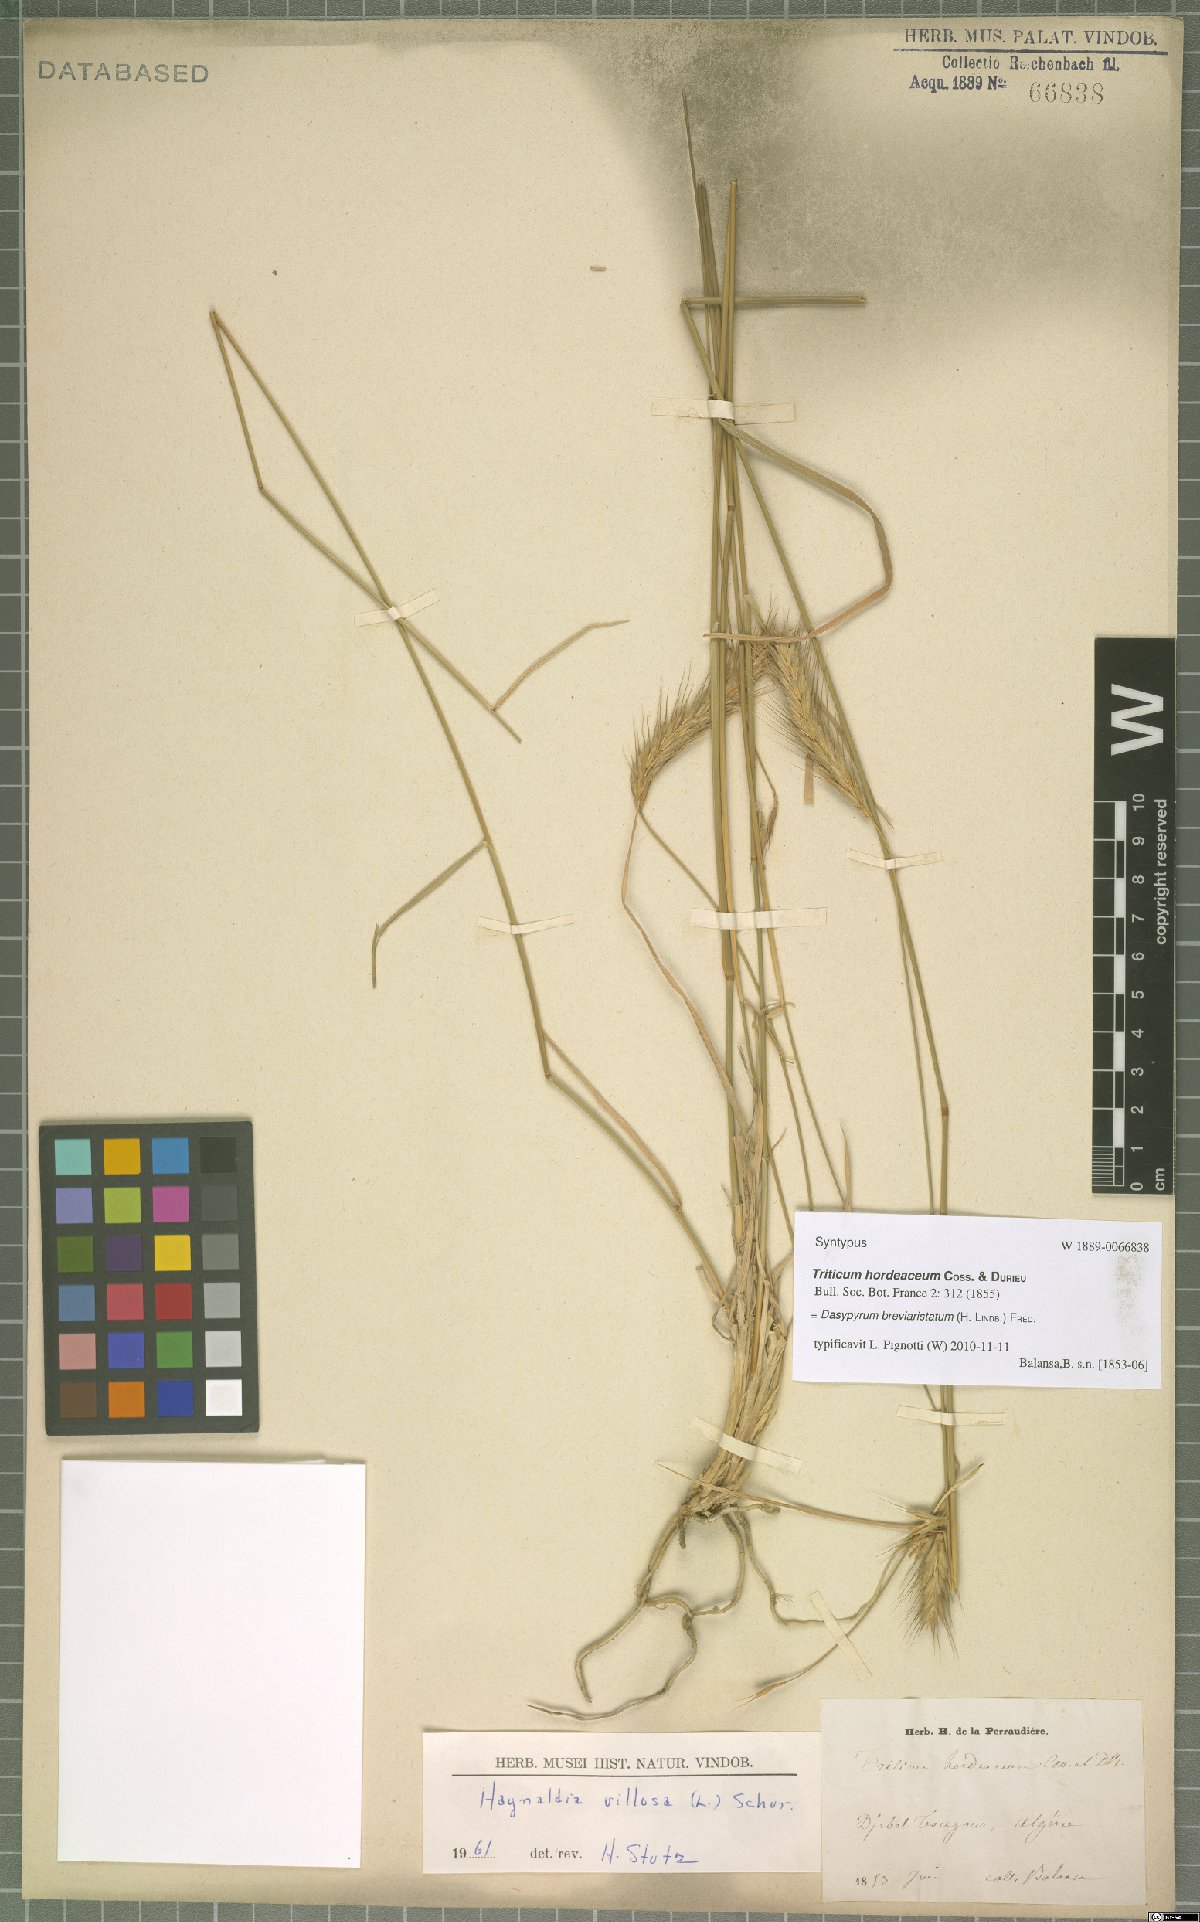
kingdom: Plantae
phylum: Tracheophyta
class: Liliopsida
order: Poales
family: Poaceae
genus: Dasypyrum
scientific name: Dasypyrum hordeaceum
